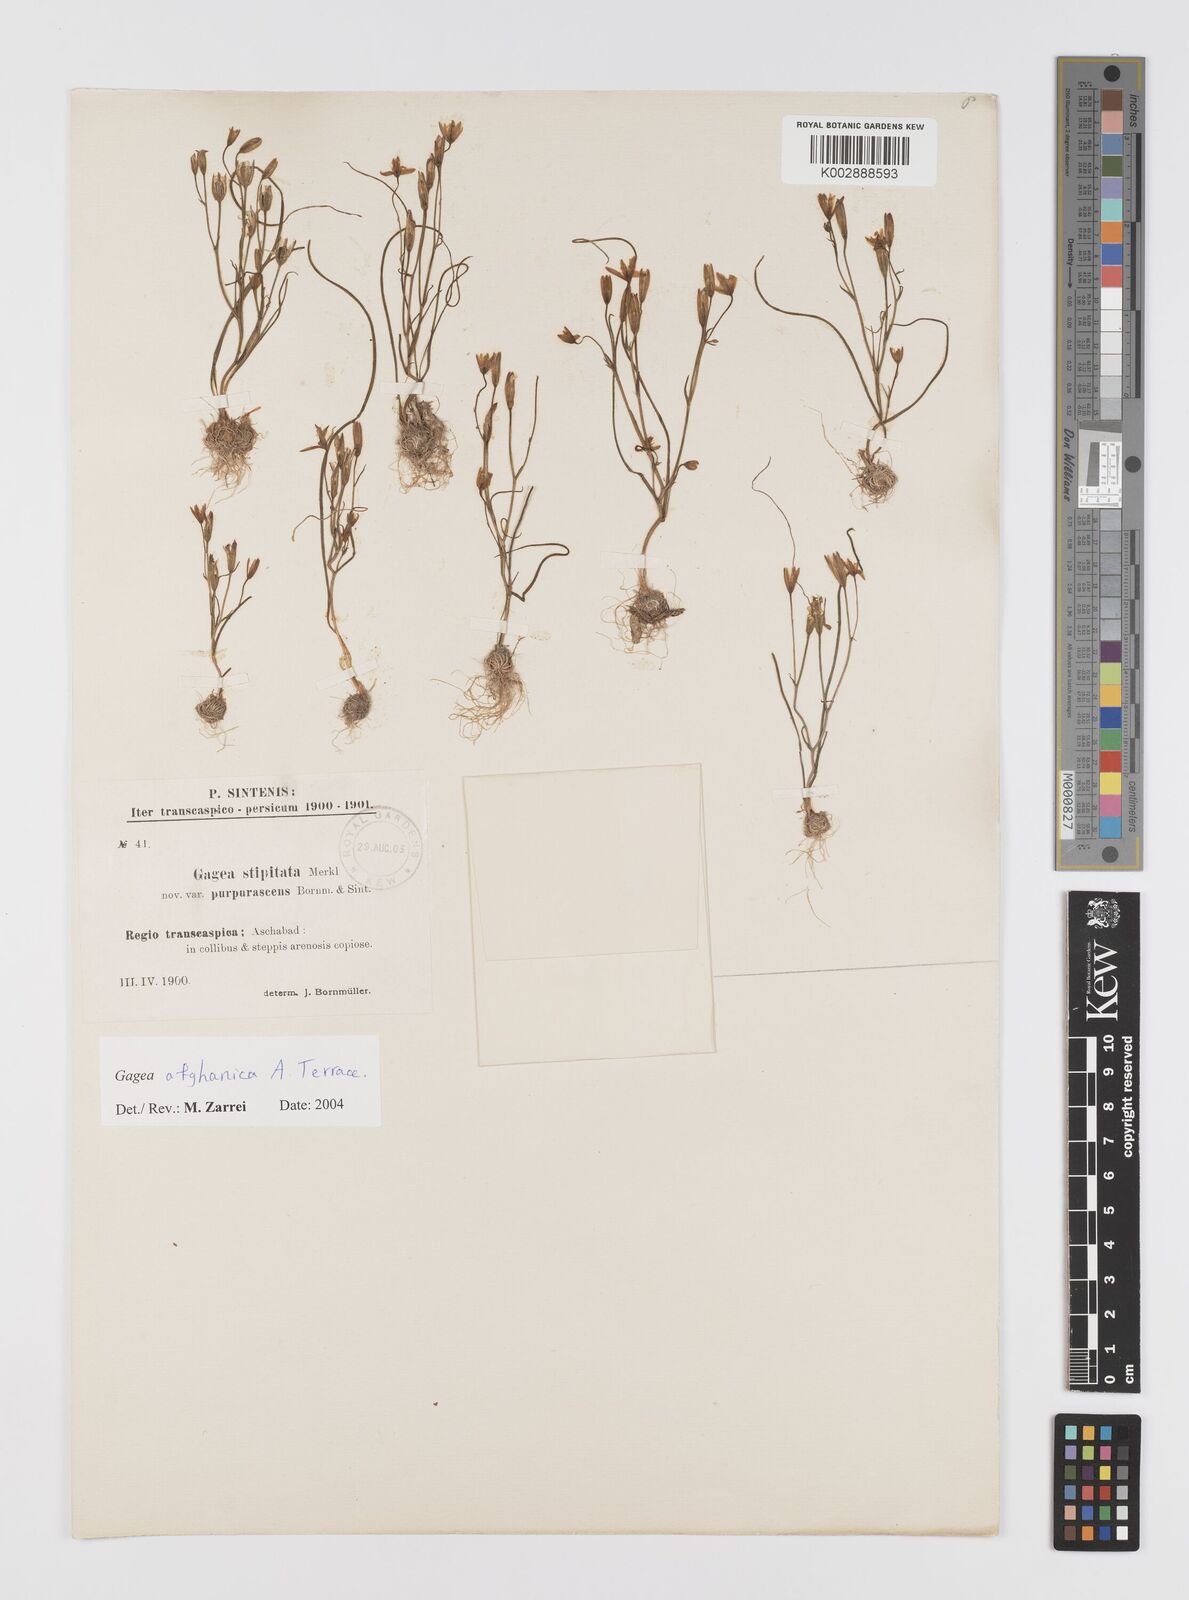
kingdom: Plantae
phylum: Tracheophyta
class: Liliopsida
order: Liliales
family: Liliaceae
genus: Gagea
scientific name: Gagea chlorantha
